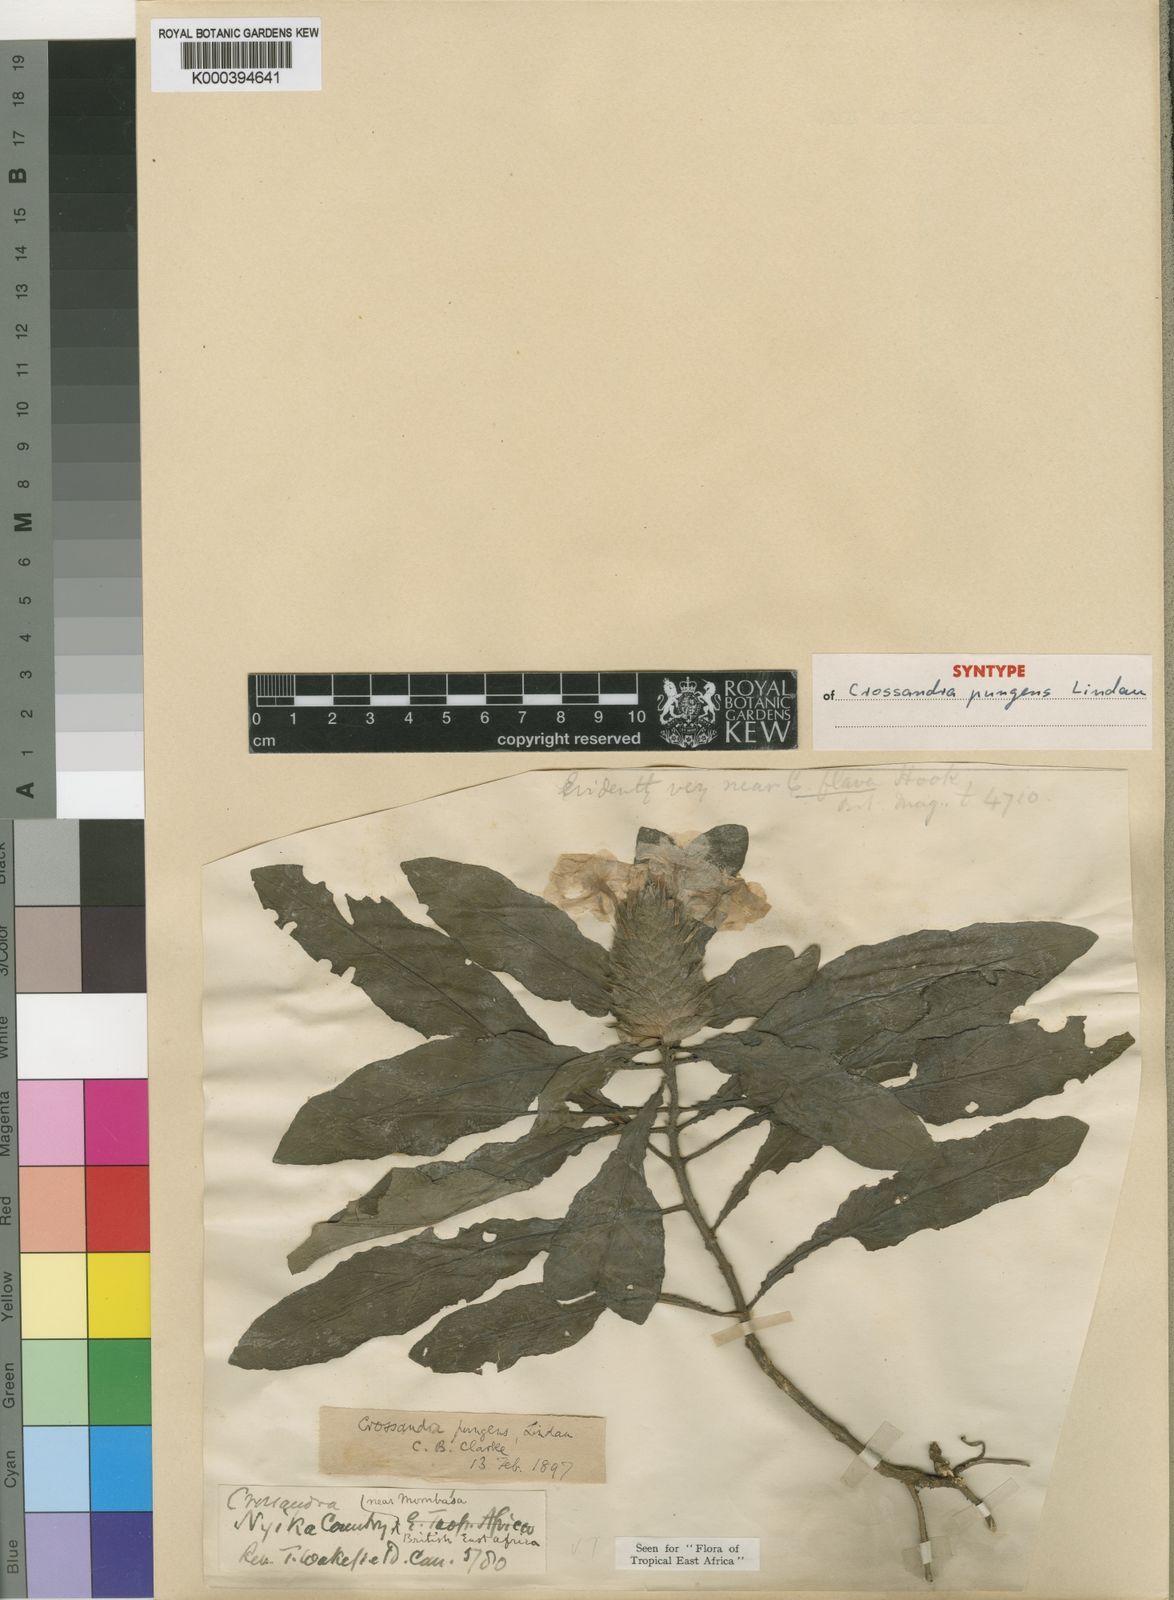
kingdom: Plantae
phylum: Tracheophyta
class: Magnoliopsida
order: Lamiales
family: Acanthaceae
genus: Crossandra
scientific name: Crossandra pungens
